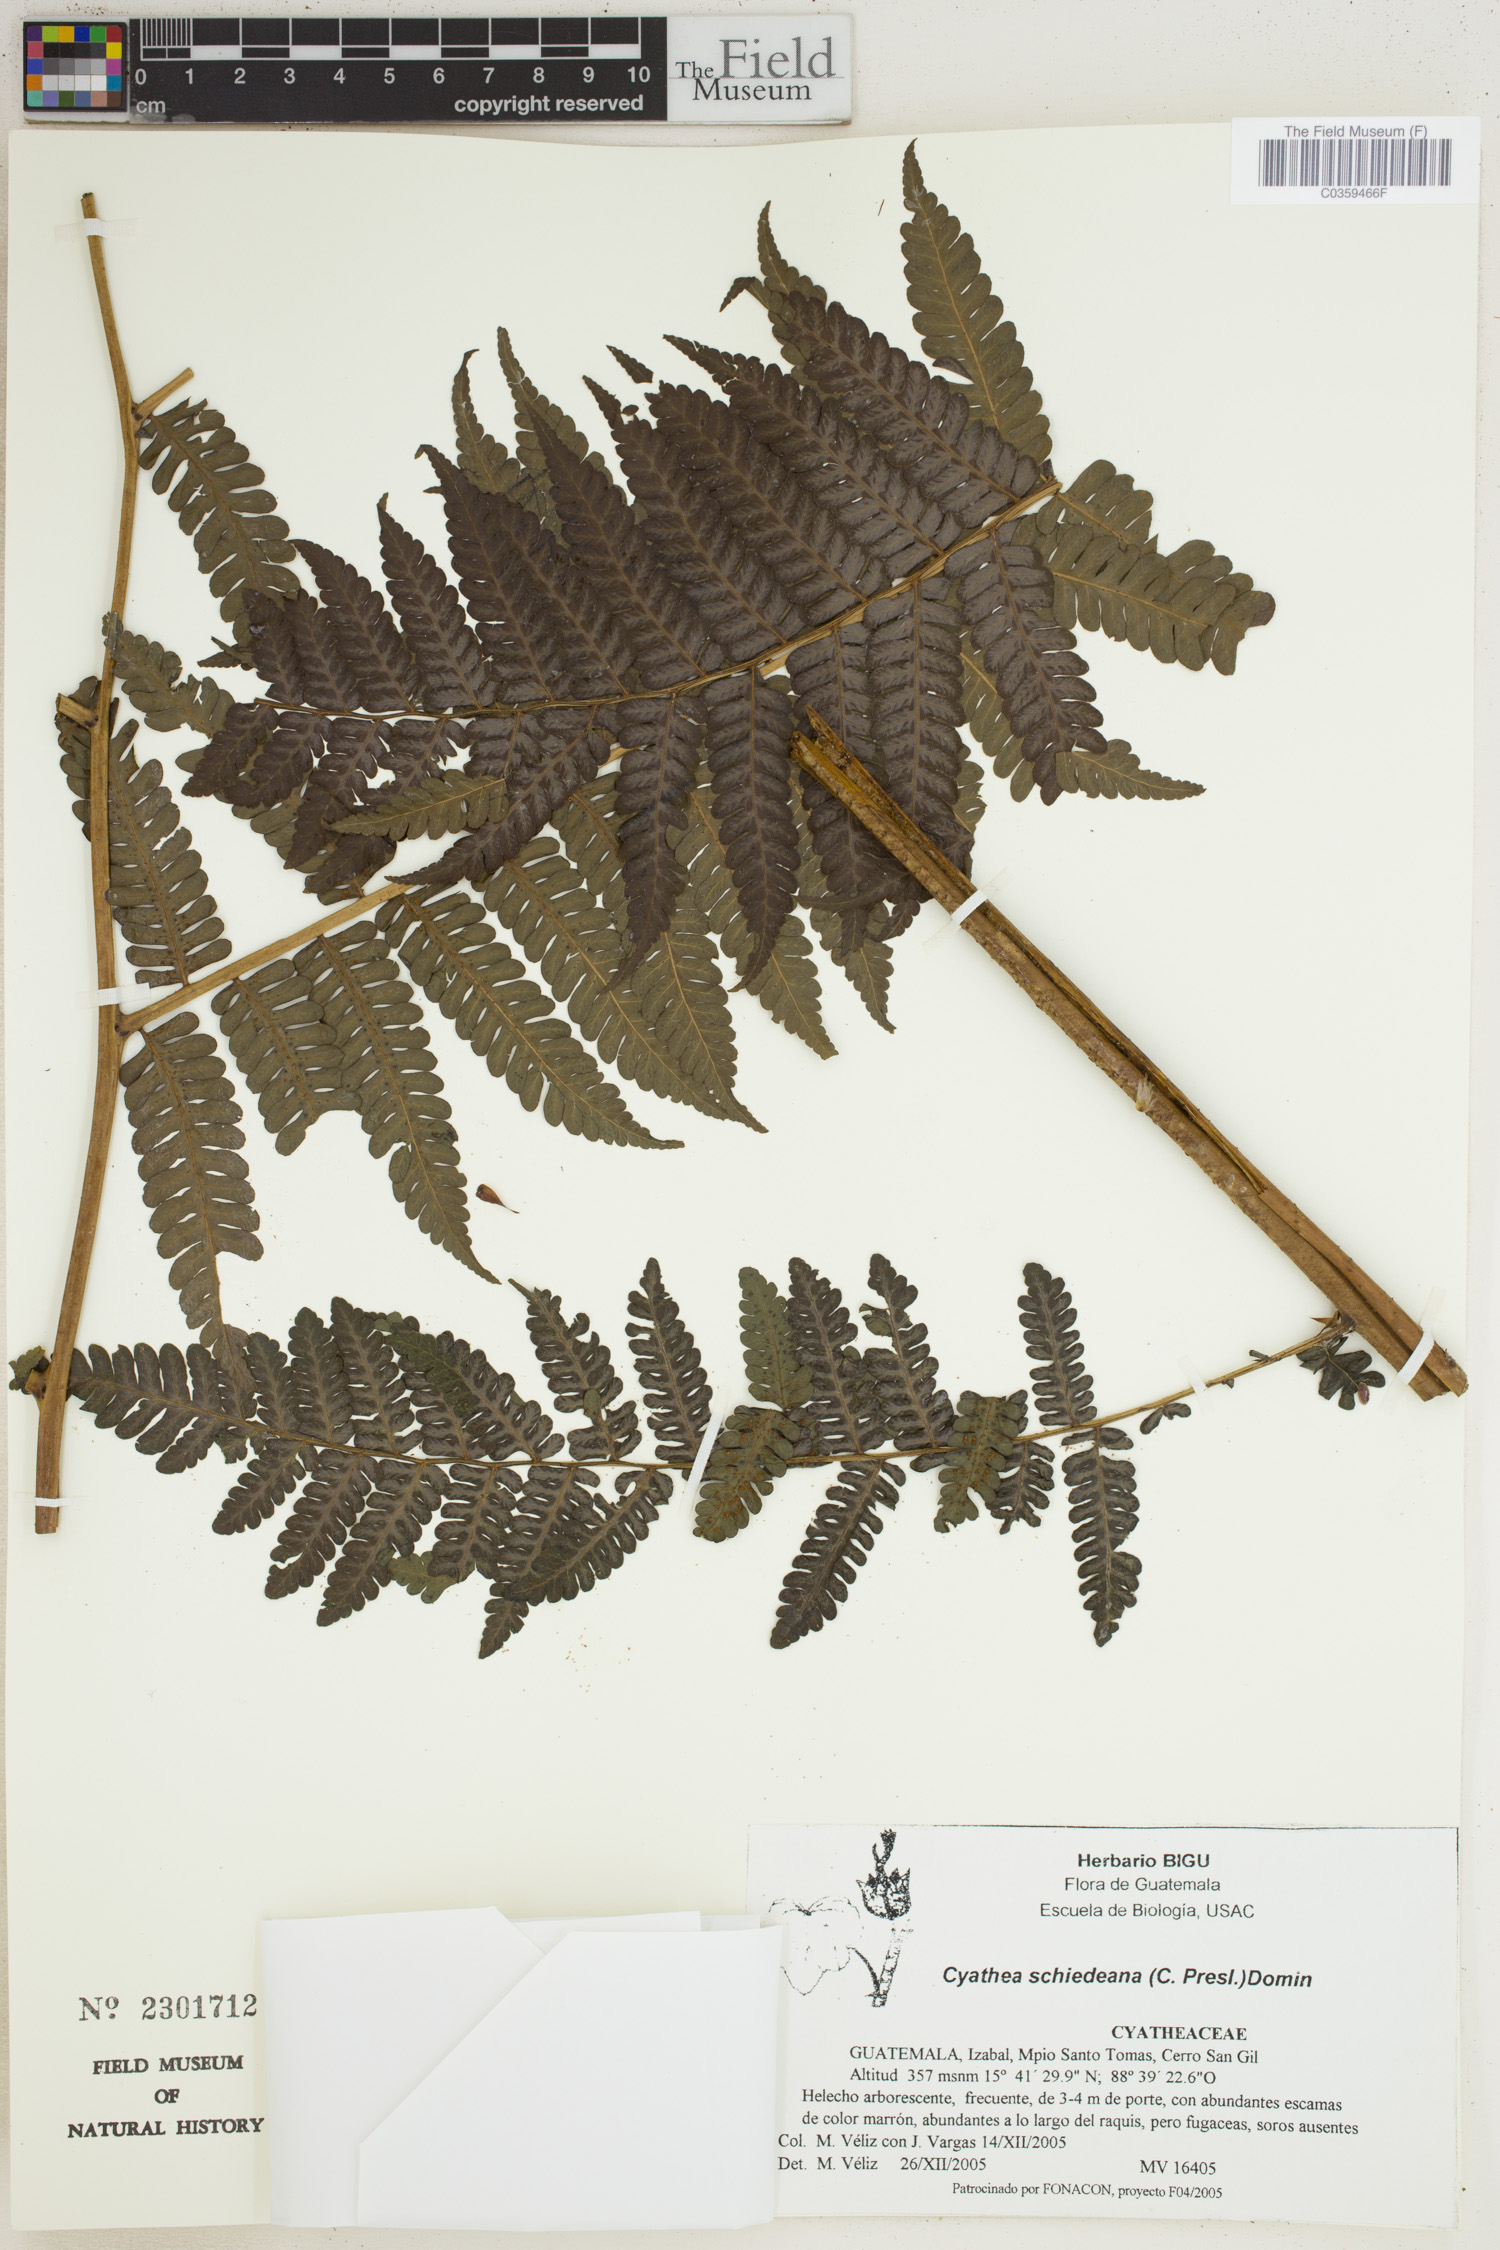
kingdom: Plantae
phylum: Tracheophyta
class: Polypodiopsida
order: Cyatheales
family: Cyatheaceae
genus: Cyathea
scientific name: Cyathea schiedeana
